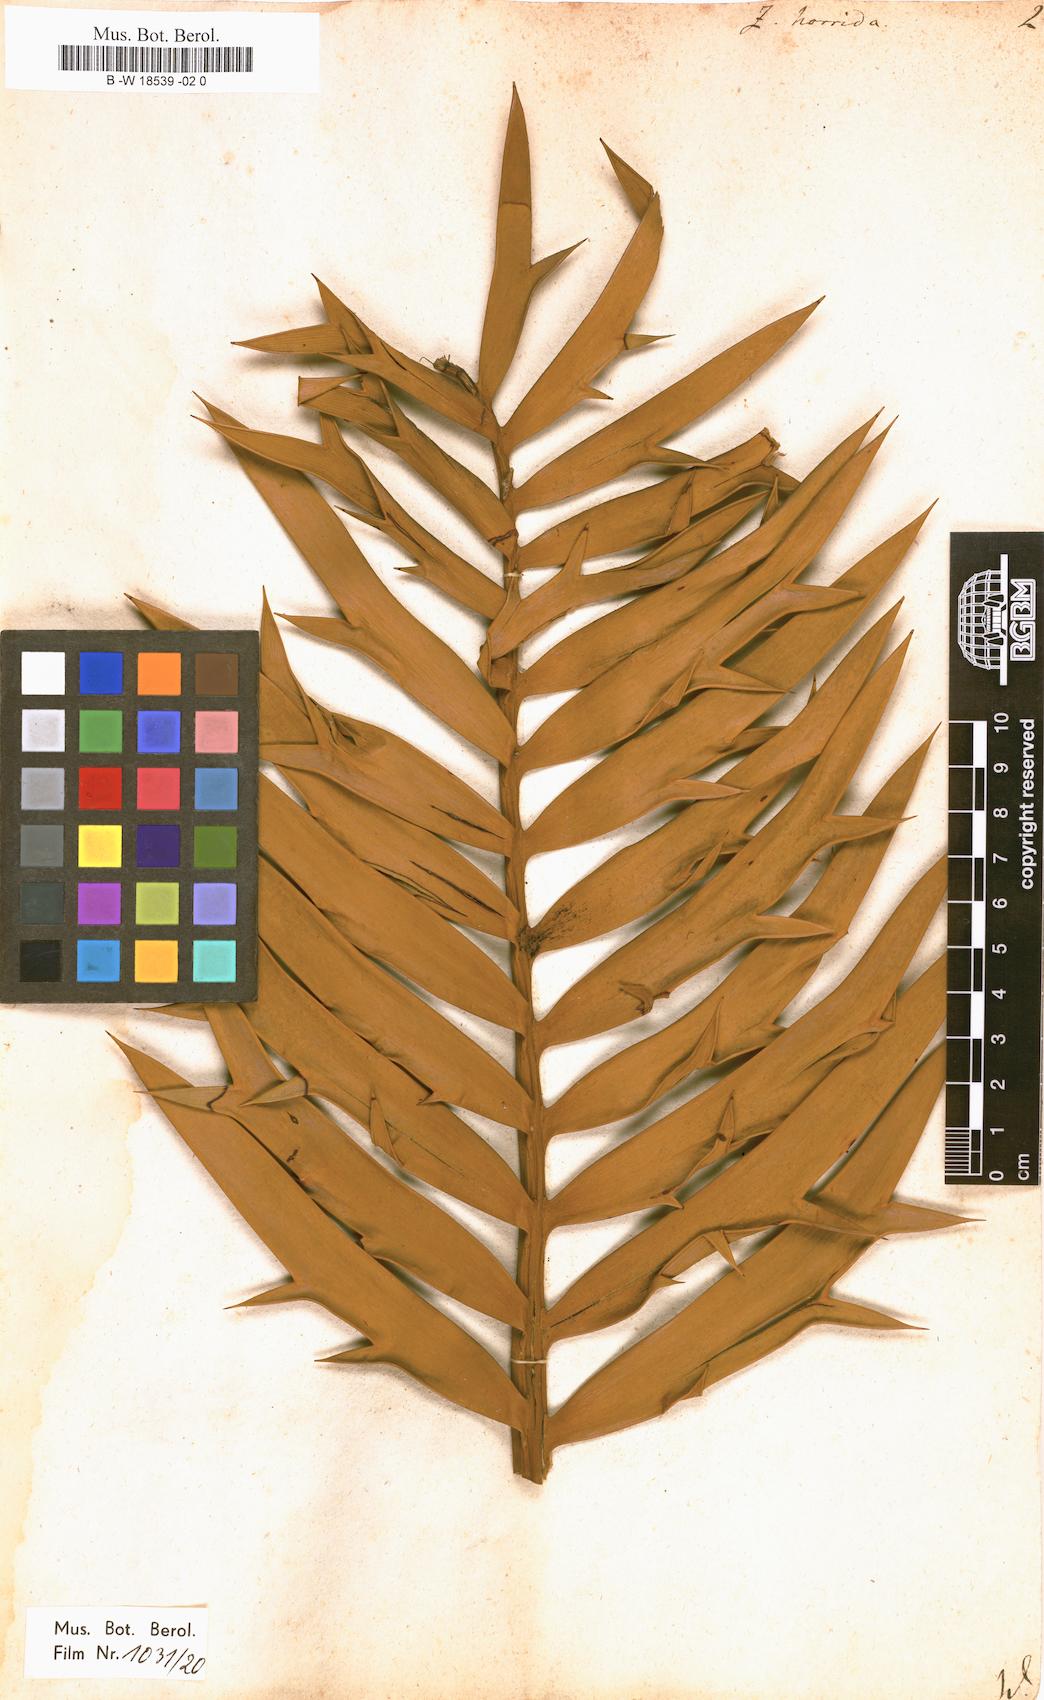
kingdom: Plantae
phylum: Tracheophyta
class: Cycadopsida
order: Cycadales
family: Zamiaceae
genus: Zamia
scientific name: Zamia horrida
